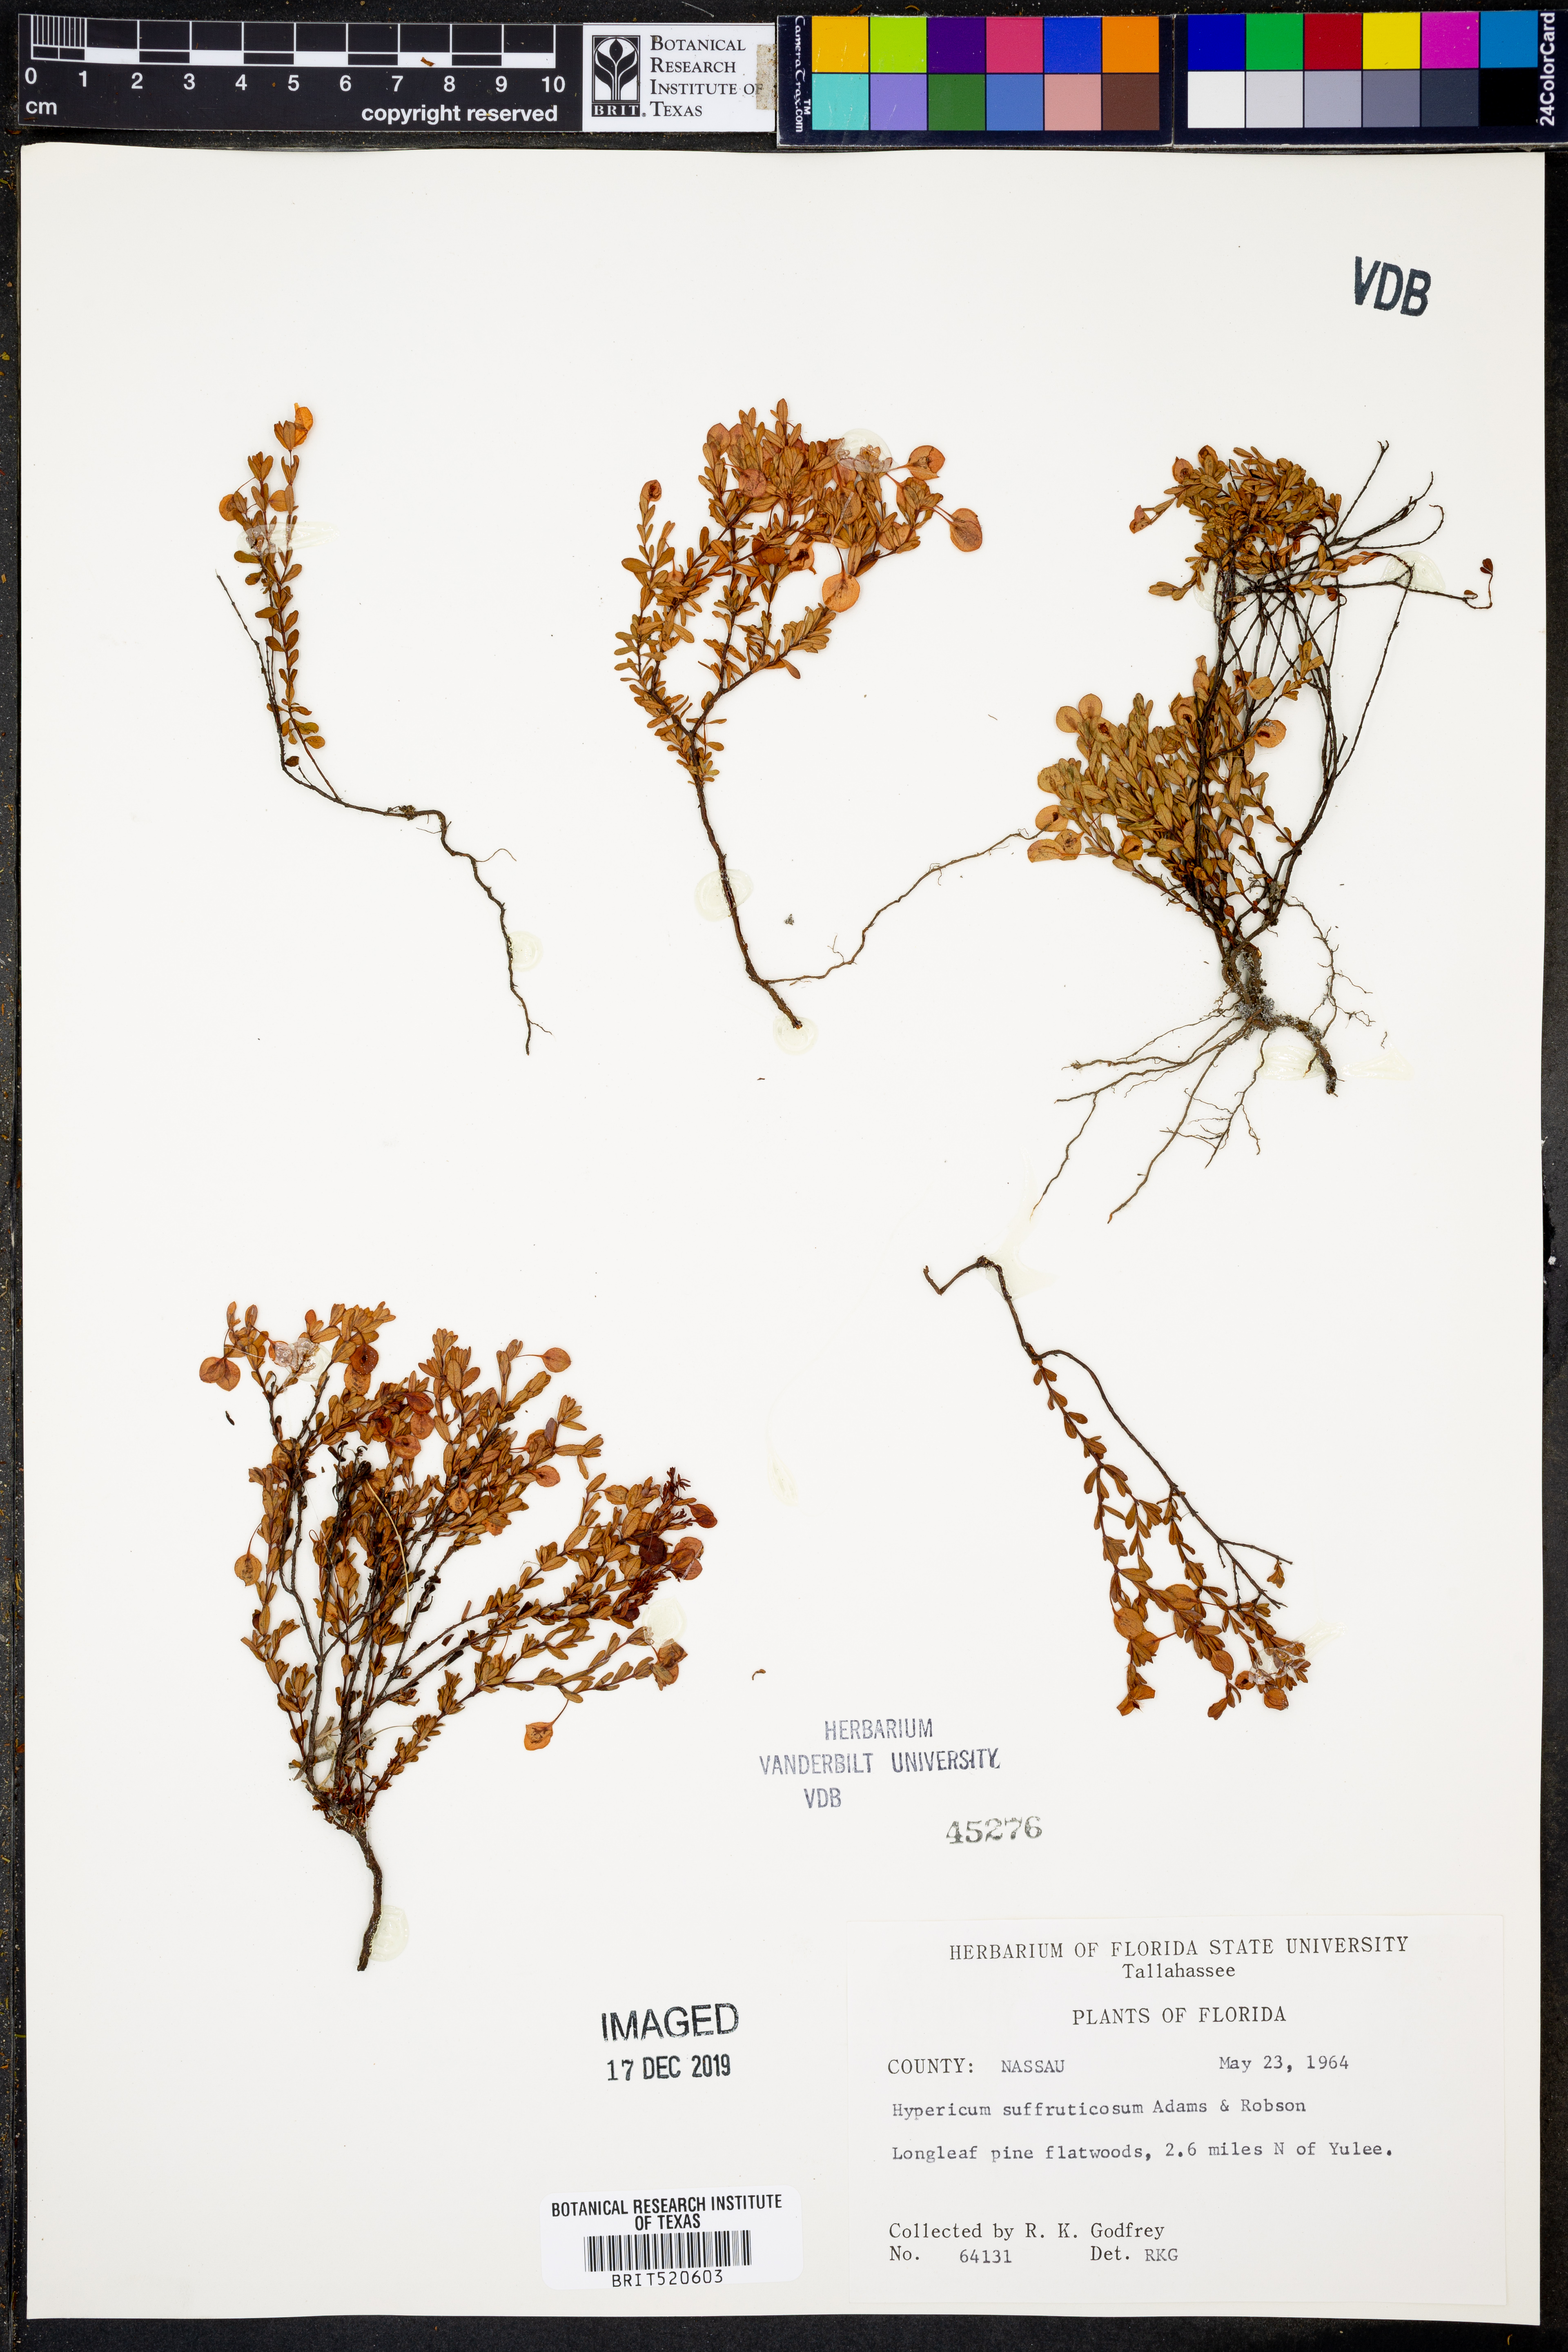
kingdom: Plantae
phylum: Tracheophyta
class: Magnoliopsida
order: Malpighiales
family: Hypericaceae
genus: Hypericum
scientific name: Hypericum suffruticosum
